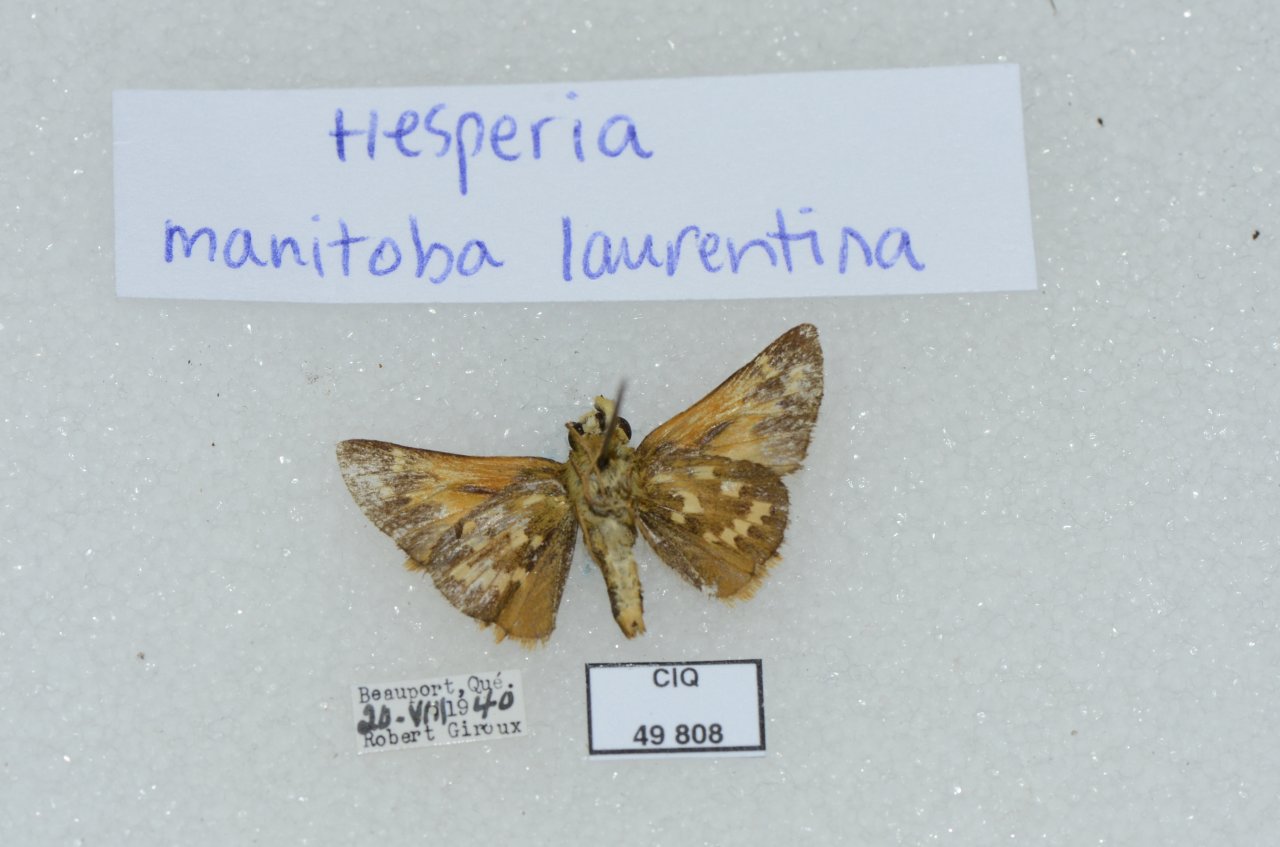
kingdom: Animalia
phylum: Arthropoda
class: Insecta
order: Lepidoptera
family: Hesperiidae
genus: Hesperia
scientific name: Hesperia comma
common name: Common Branded Skipper
